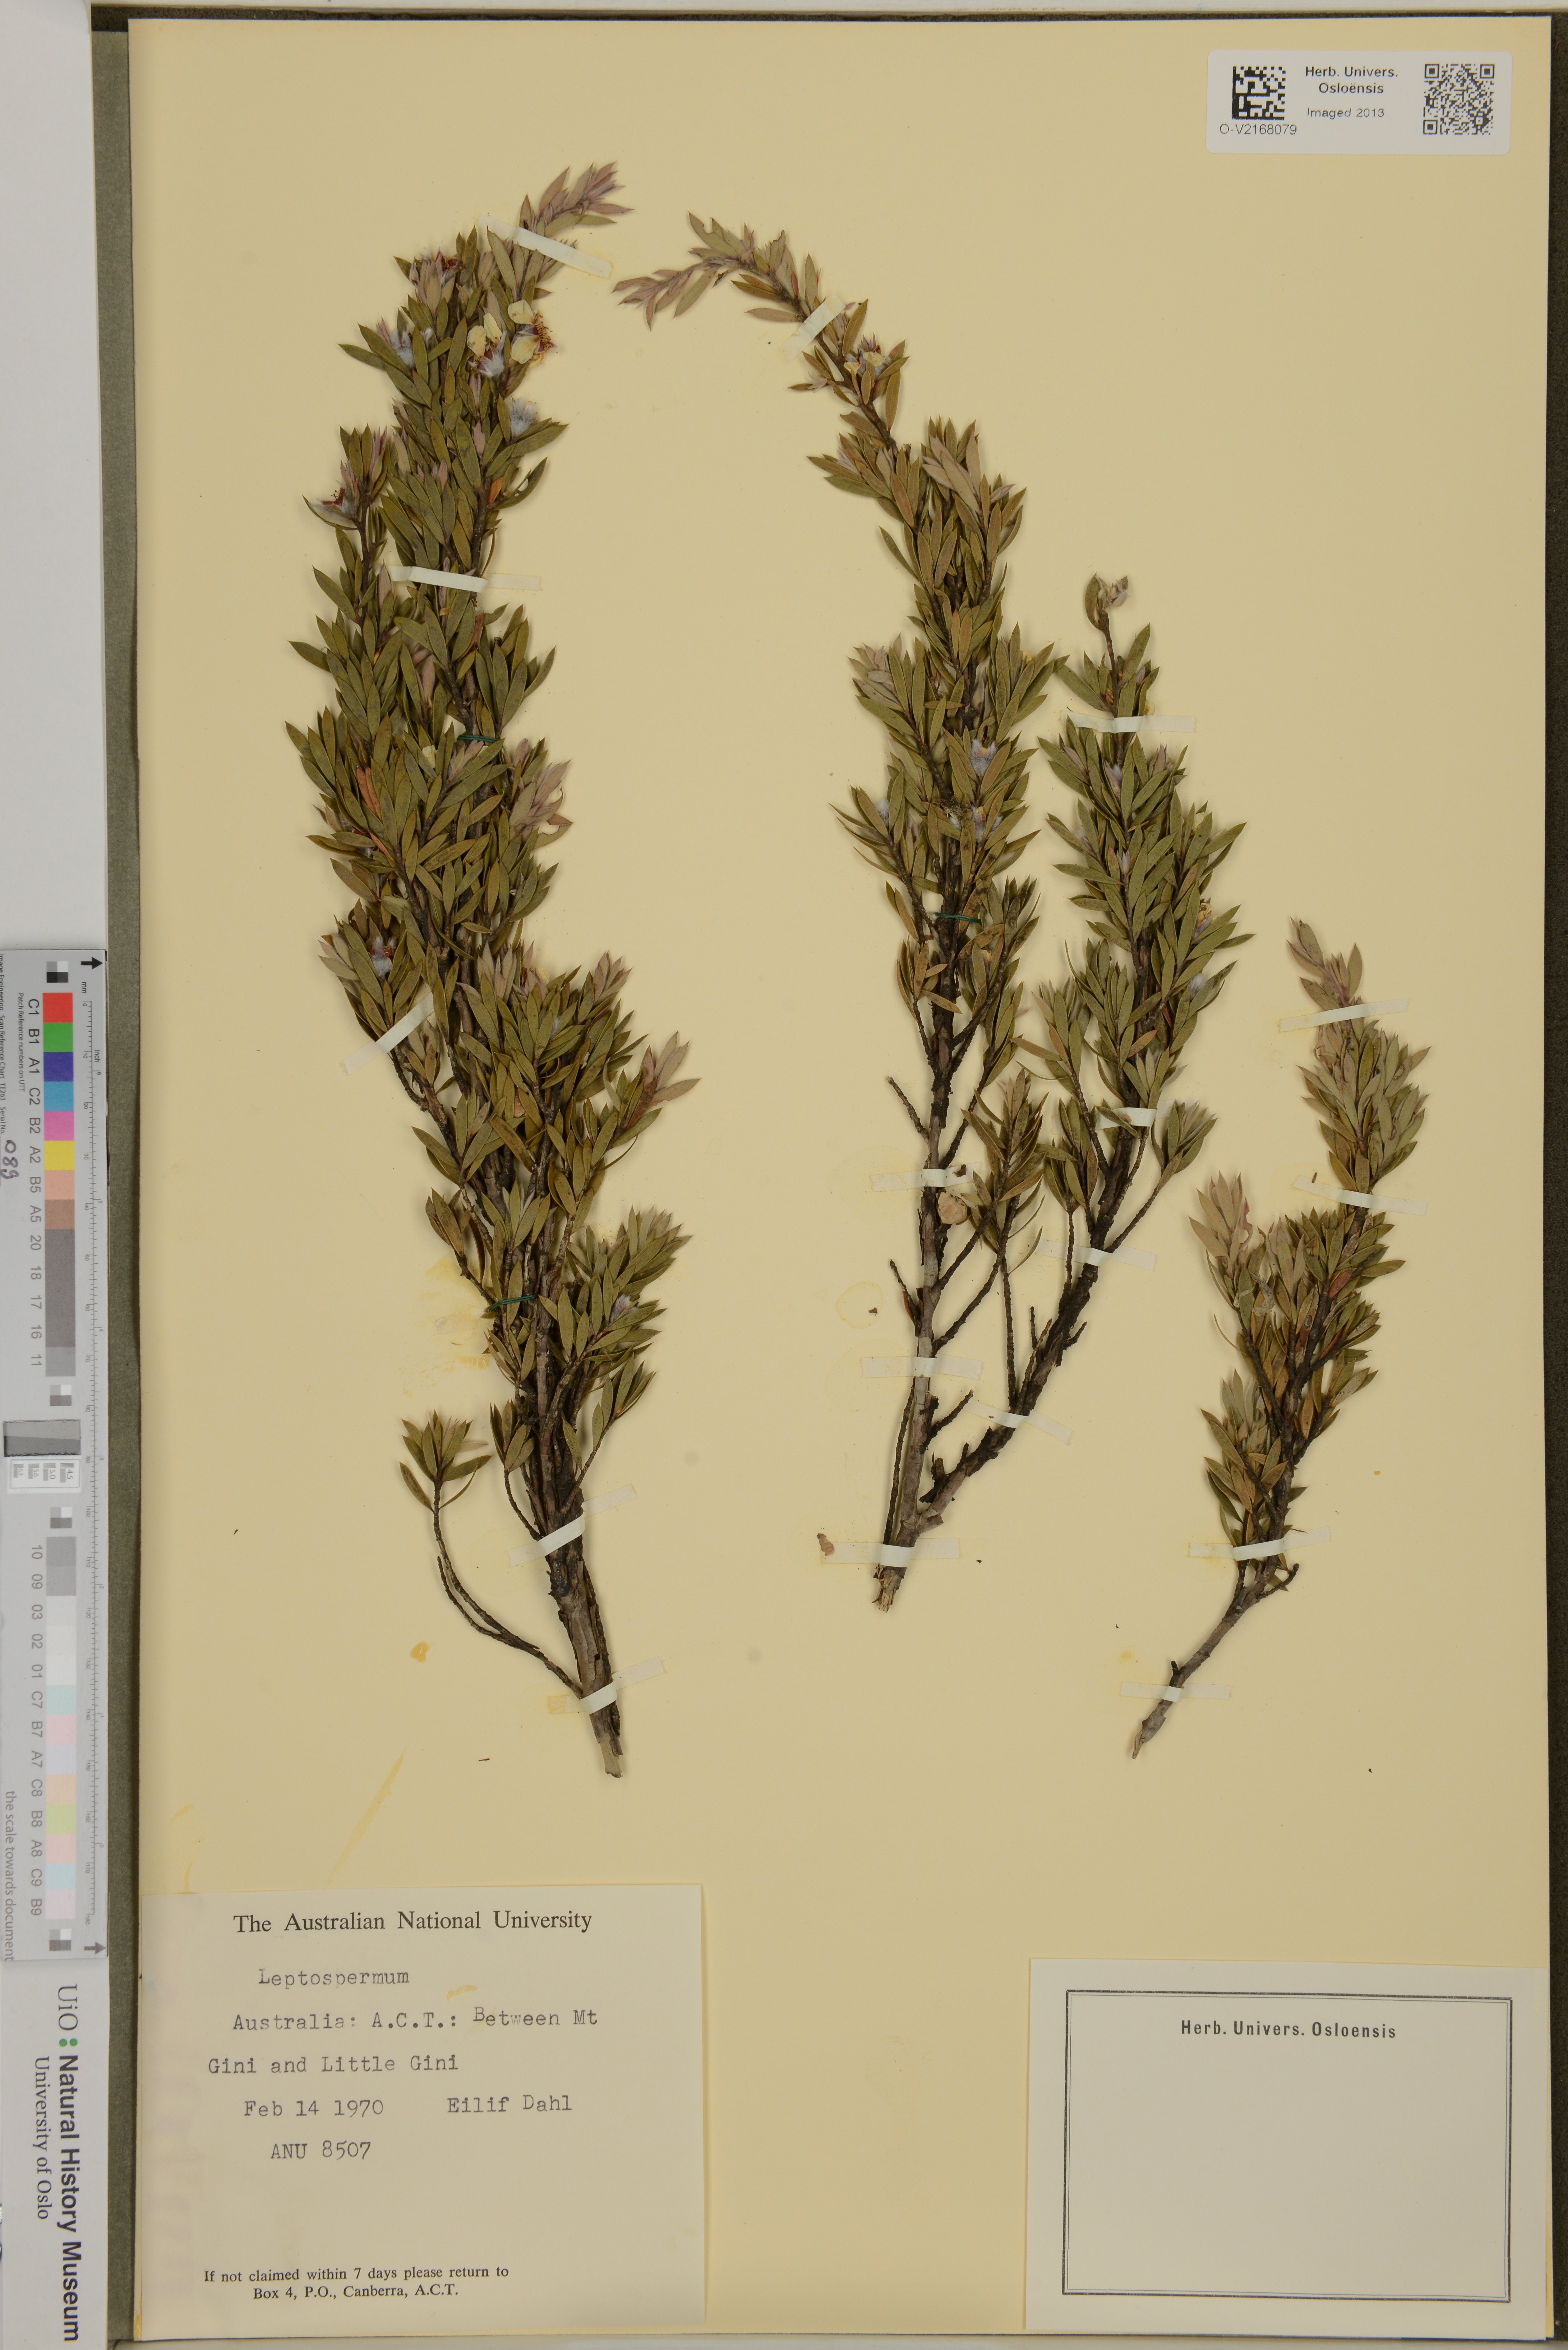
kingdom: Plantae
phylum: Tracheophyta
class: Magnoliopsida
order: Myrtales
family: Myrtaceae
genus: Leptospermum
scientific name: Leptospermum
